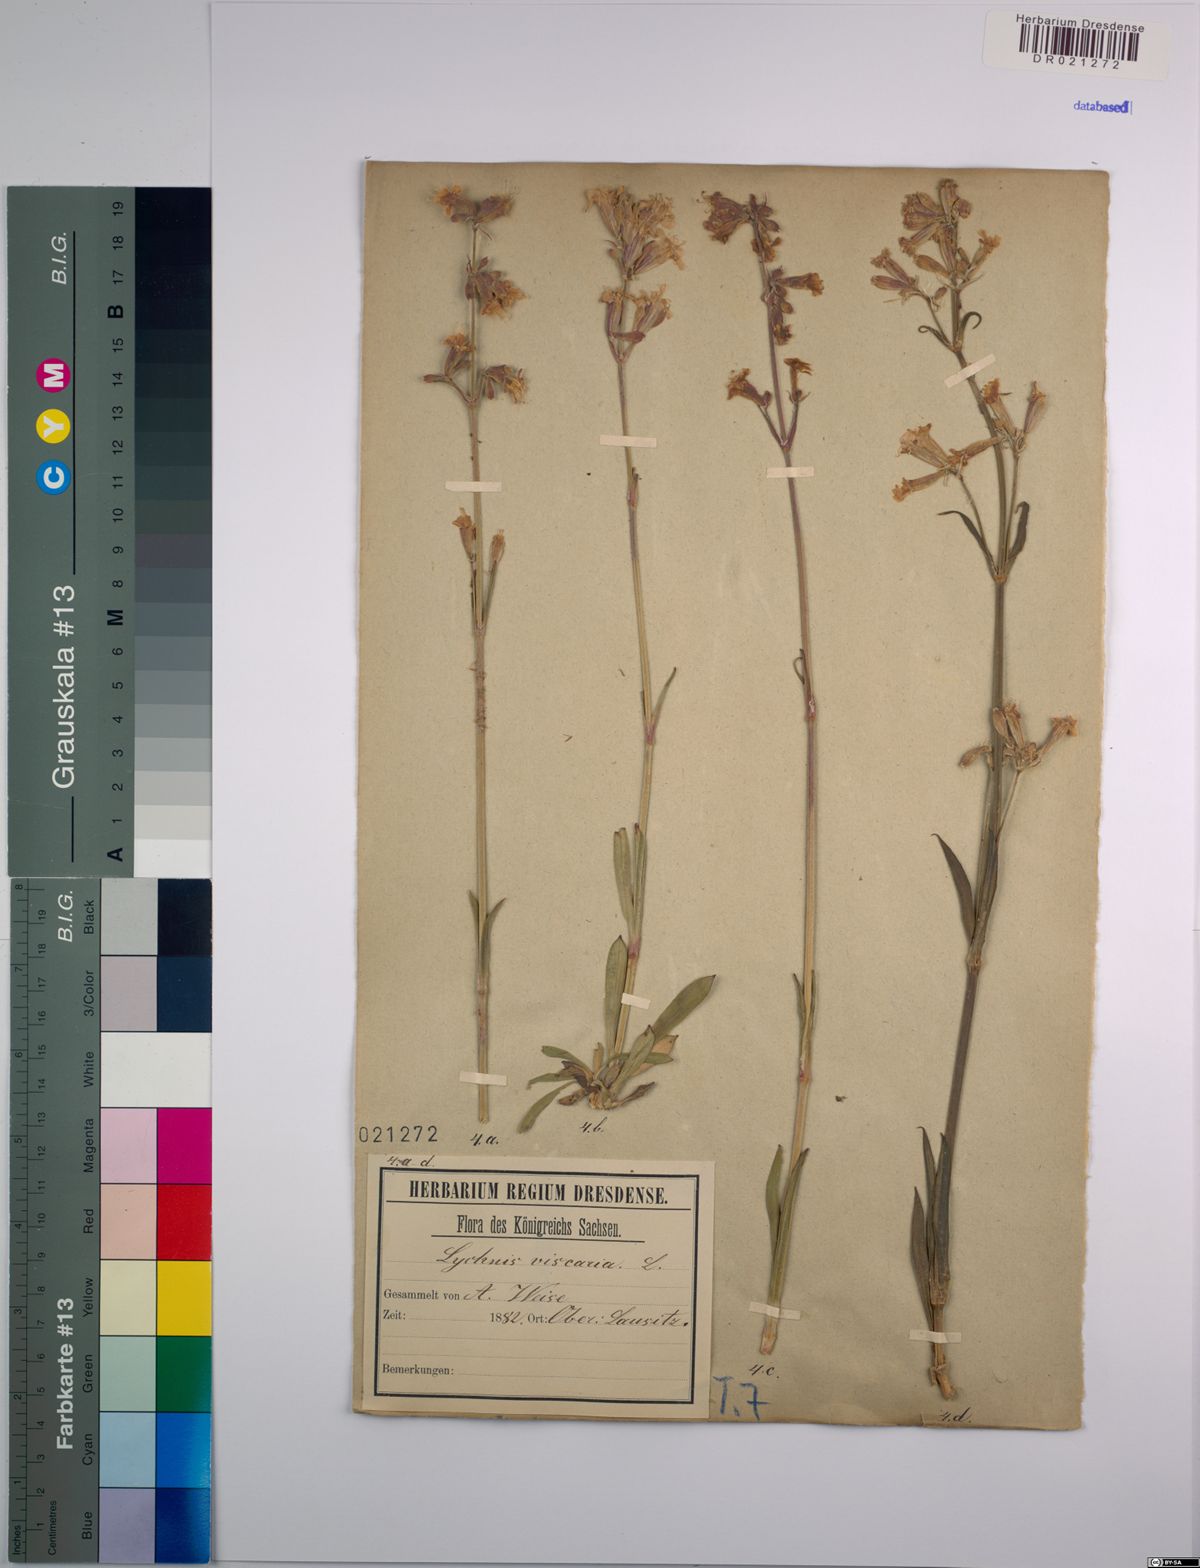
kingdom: Plantae
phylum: Tracheophyta
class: Magnoliopsida
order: Caryophyllales
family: Caryophyllaceae
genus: Viscaria
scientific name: Viscaria vulgaris
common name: Clammy campion
